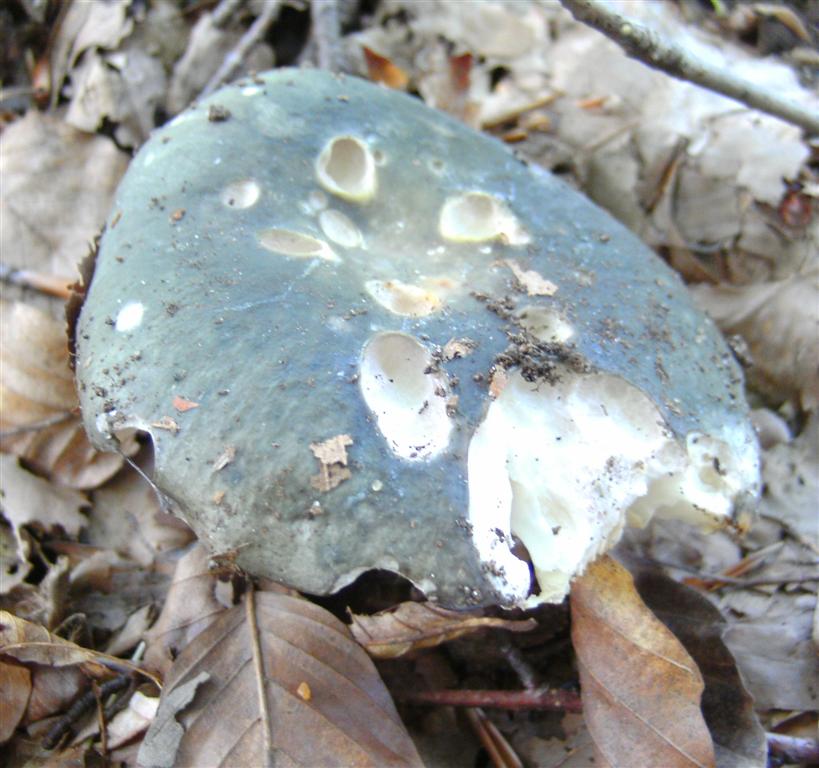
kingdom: Fungi
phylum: Basidiomycota
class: Agaricomycetes
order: Russulales
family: Russulaceae
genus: Russula
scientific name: Russula cyanoxantha
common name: broget skørhat
